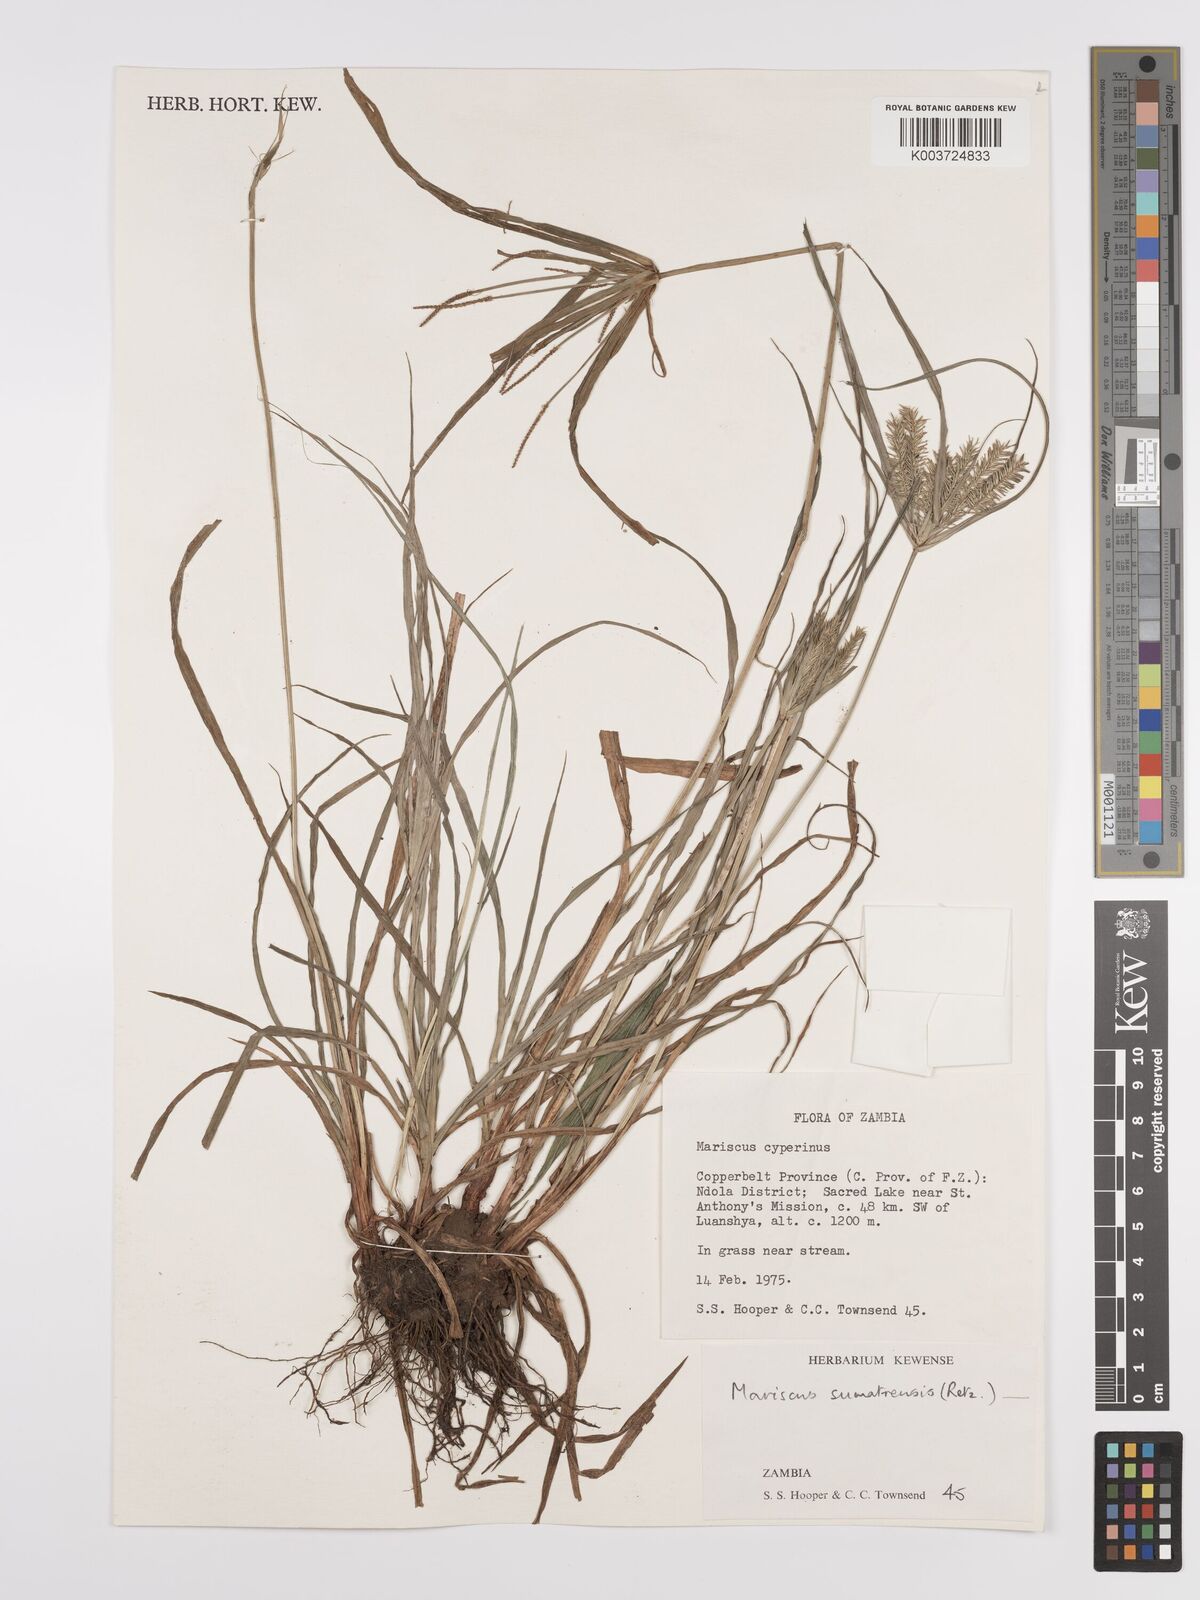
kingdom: Plantae
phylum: Tracheophyta
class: Liliopsida
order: Poales
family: Cyperaceae
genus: Cyperus
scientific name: Cyperus cyperoides
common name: Pacific island flat sedge
